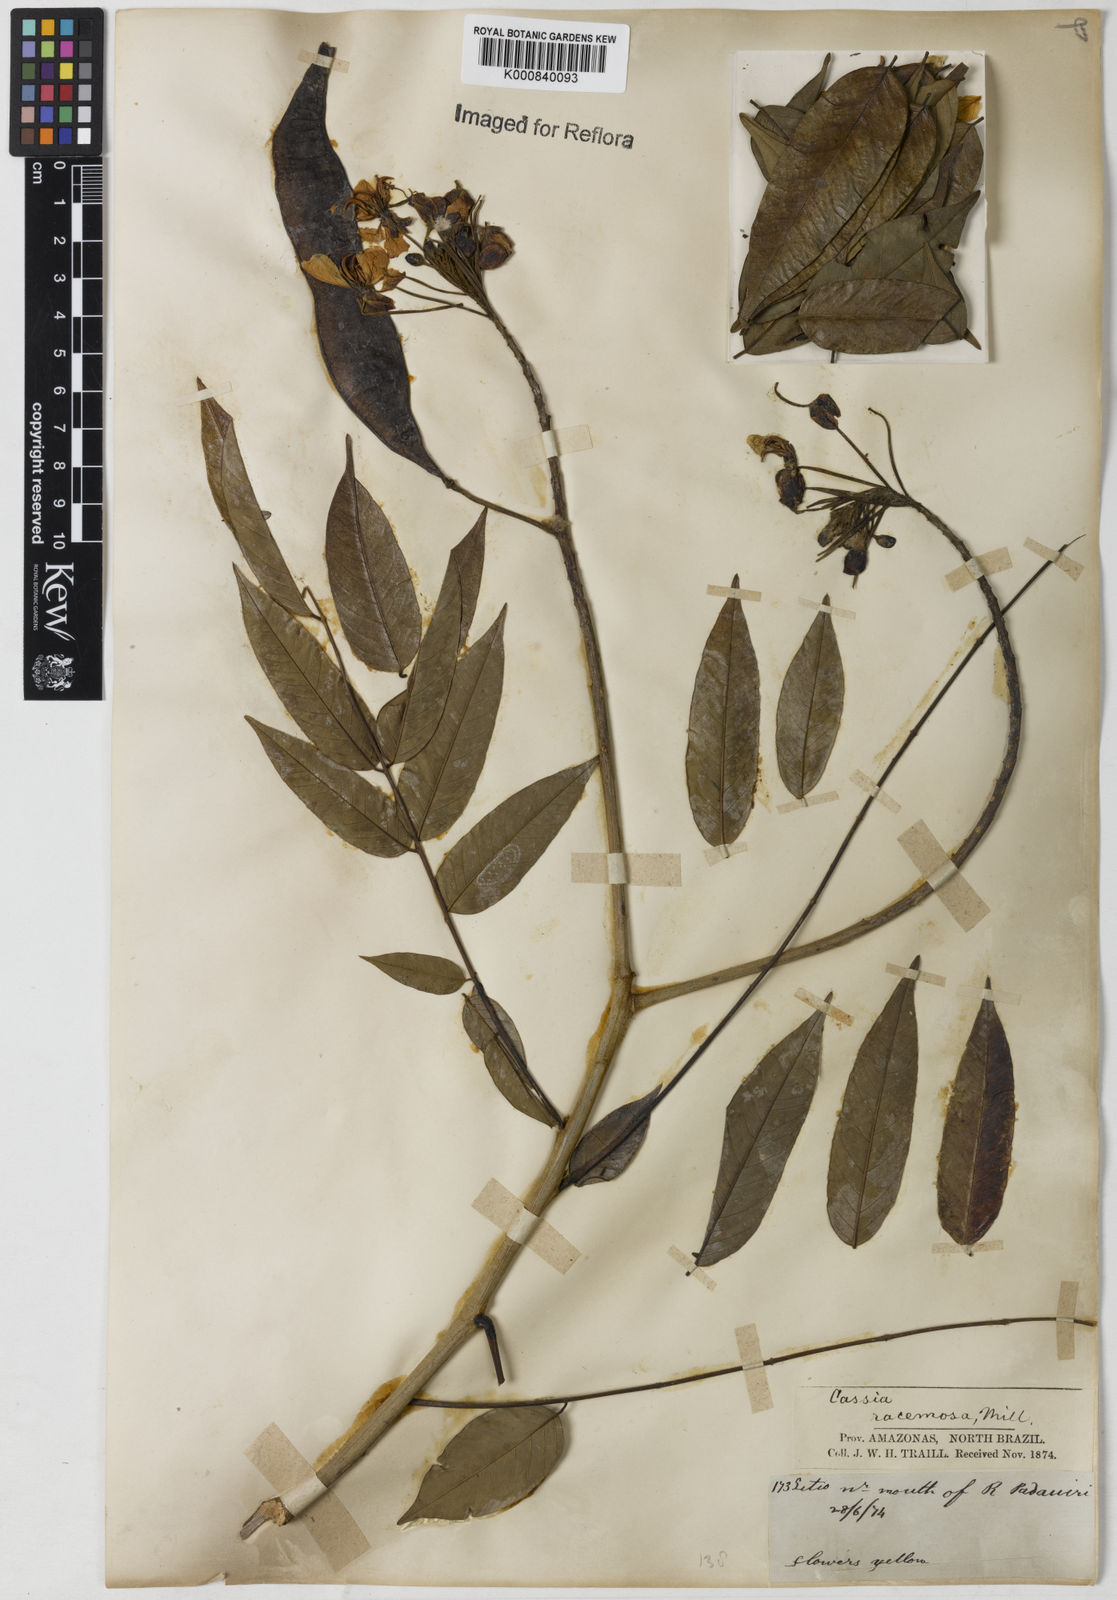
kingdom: Plantae
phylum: Tracheophyta
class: Magnoliopsida
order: Fabales
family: Fabaceae
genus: Senna
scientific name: Senna silvestris
